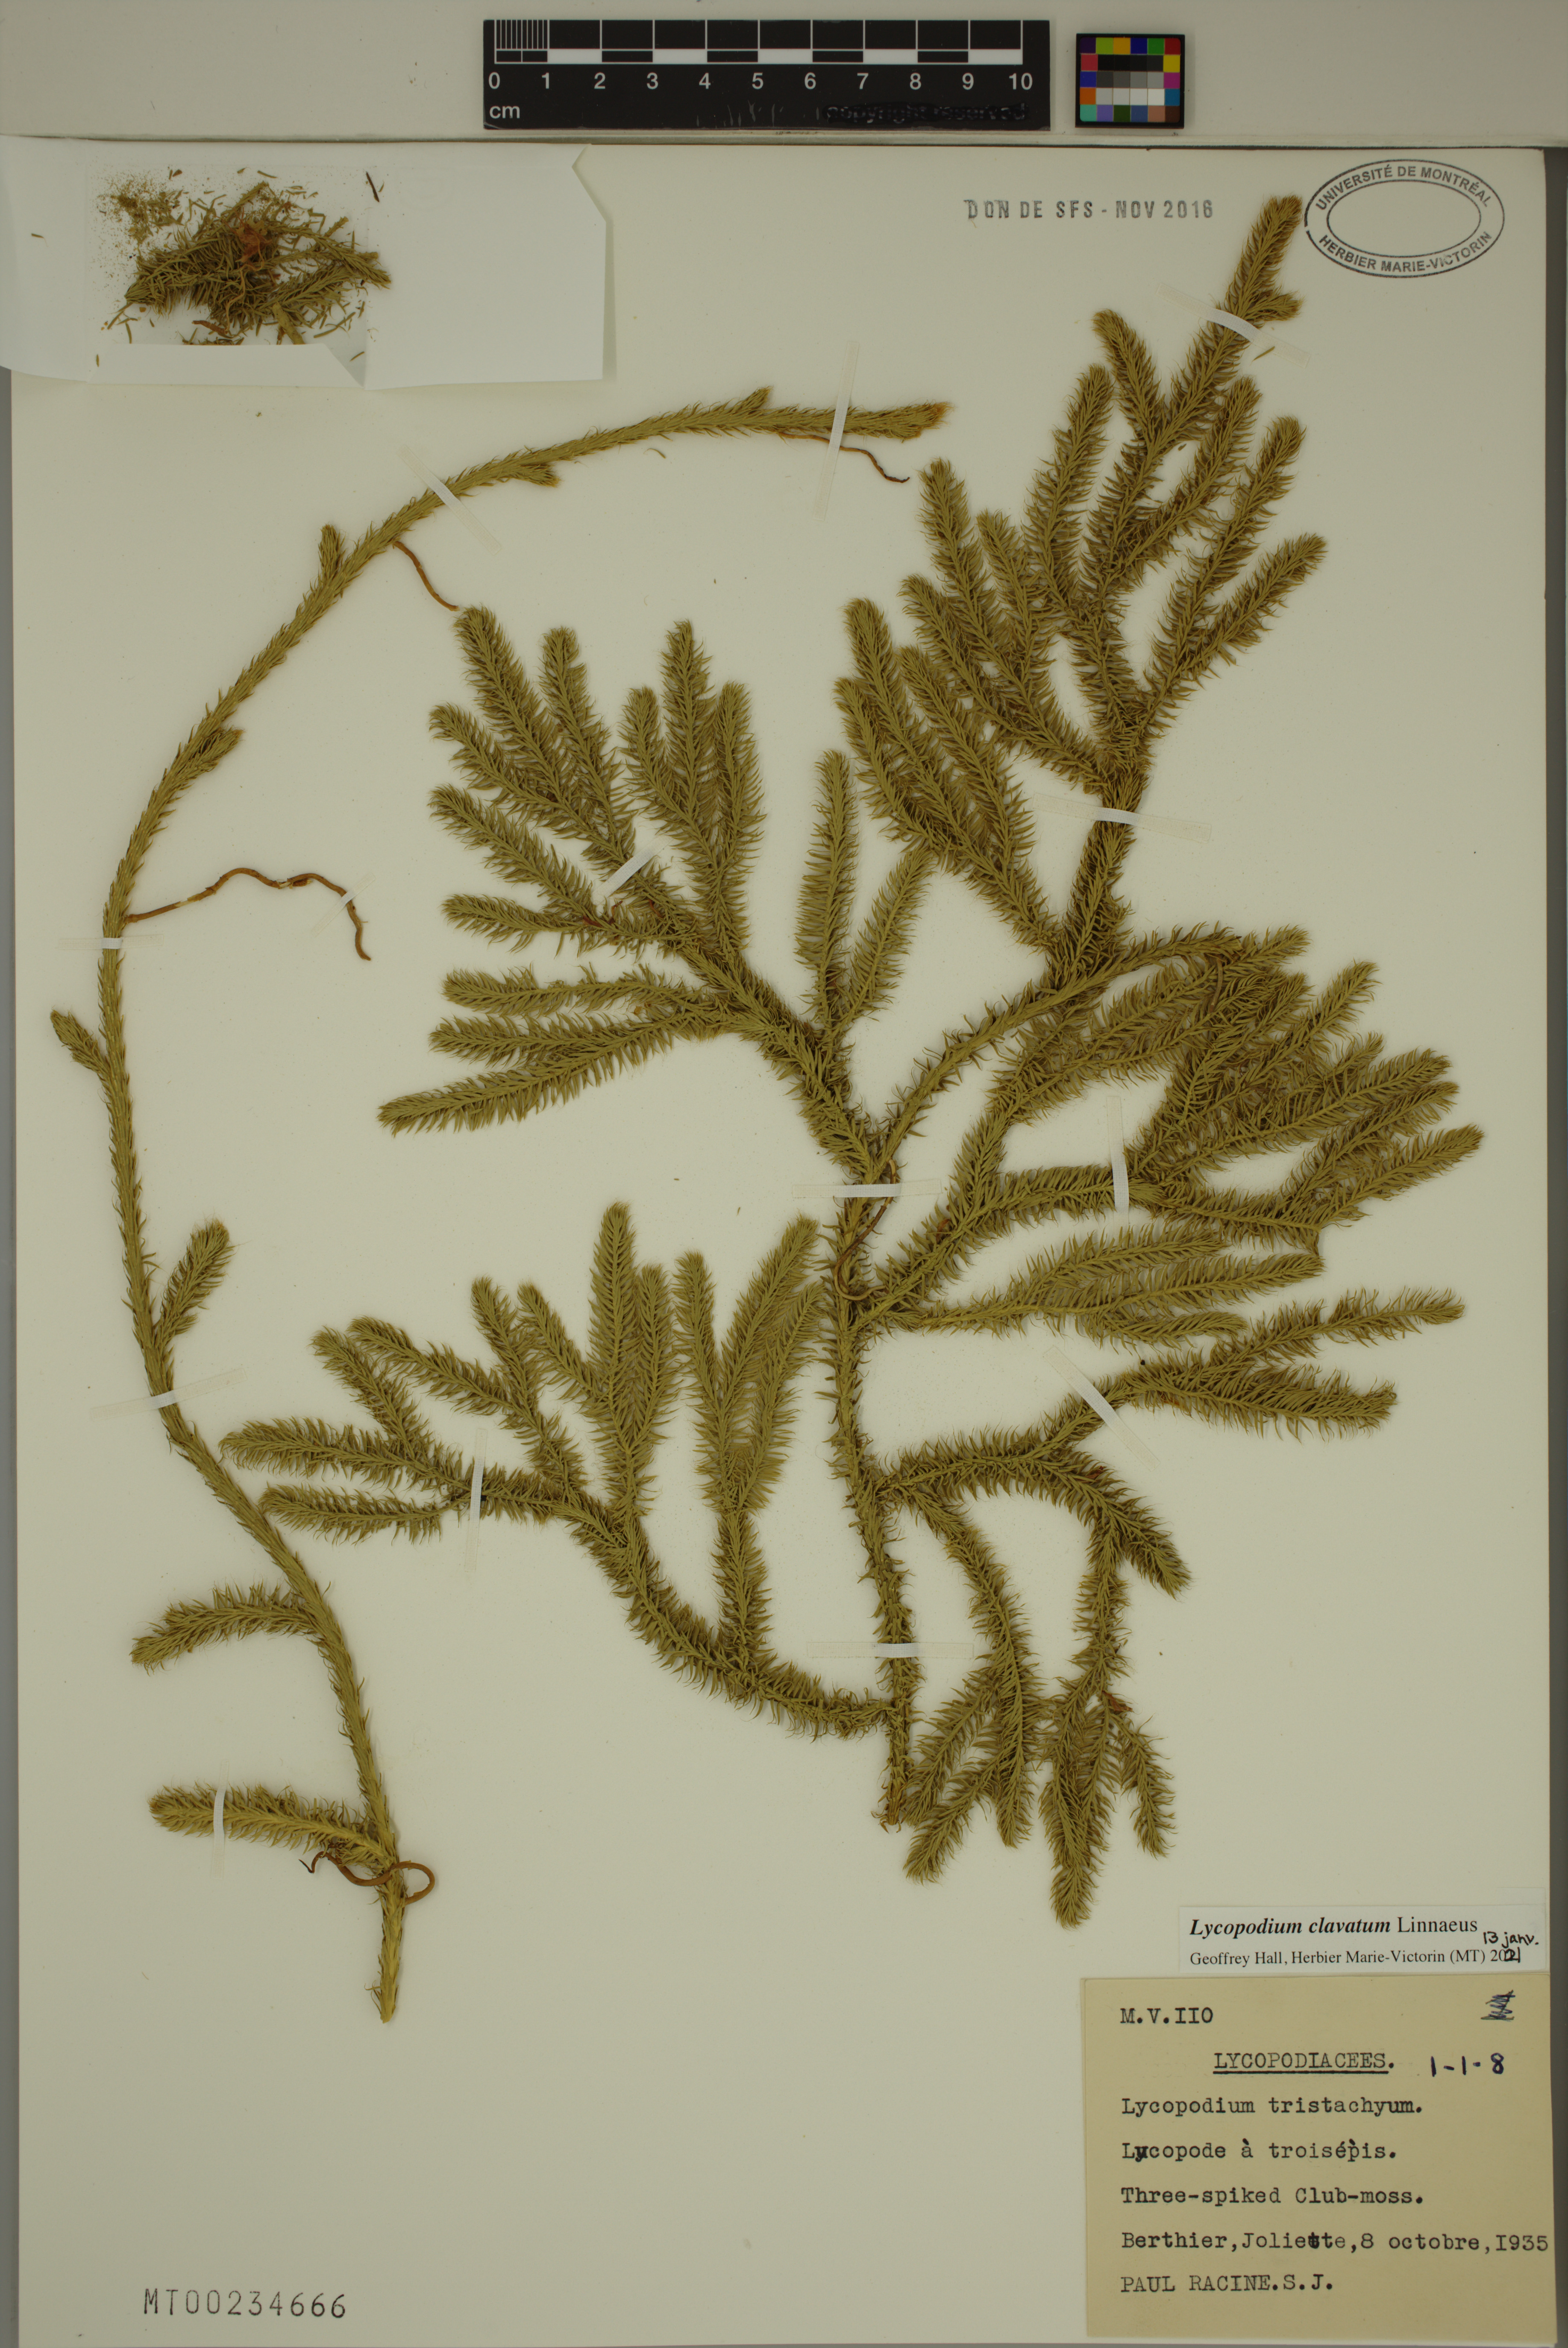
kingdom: Plantae
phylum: Tracheophyta
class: Lycopodiopsida
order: Lycopodiales
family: Lycopodiaceae
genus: Lycopodium
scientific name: Lycopodium clavatum
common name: Stag's-horn clubmoss
